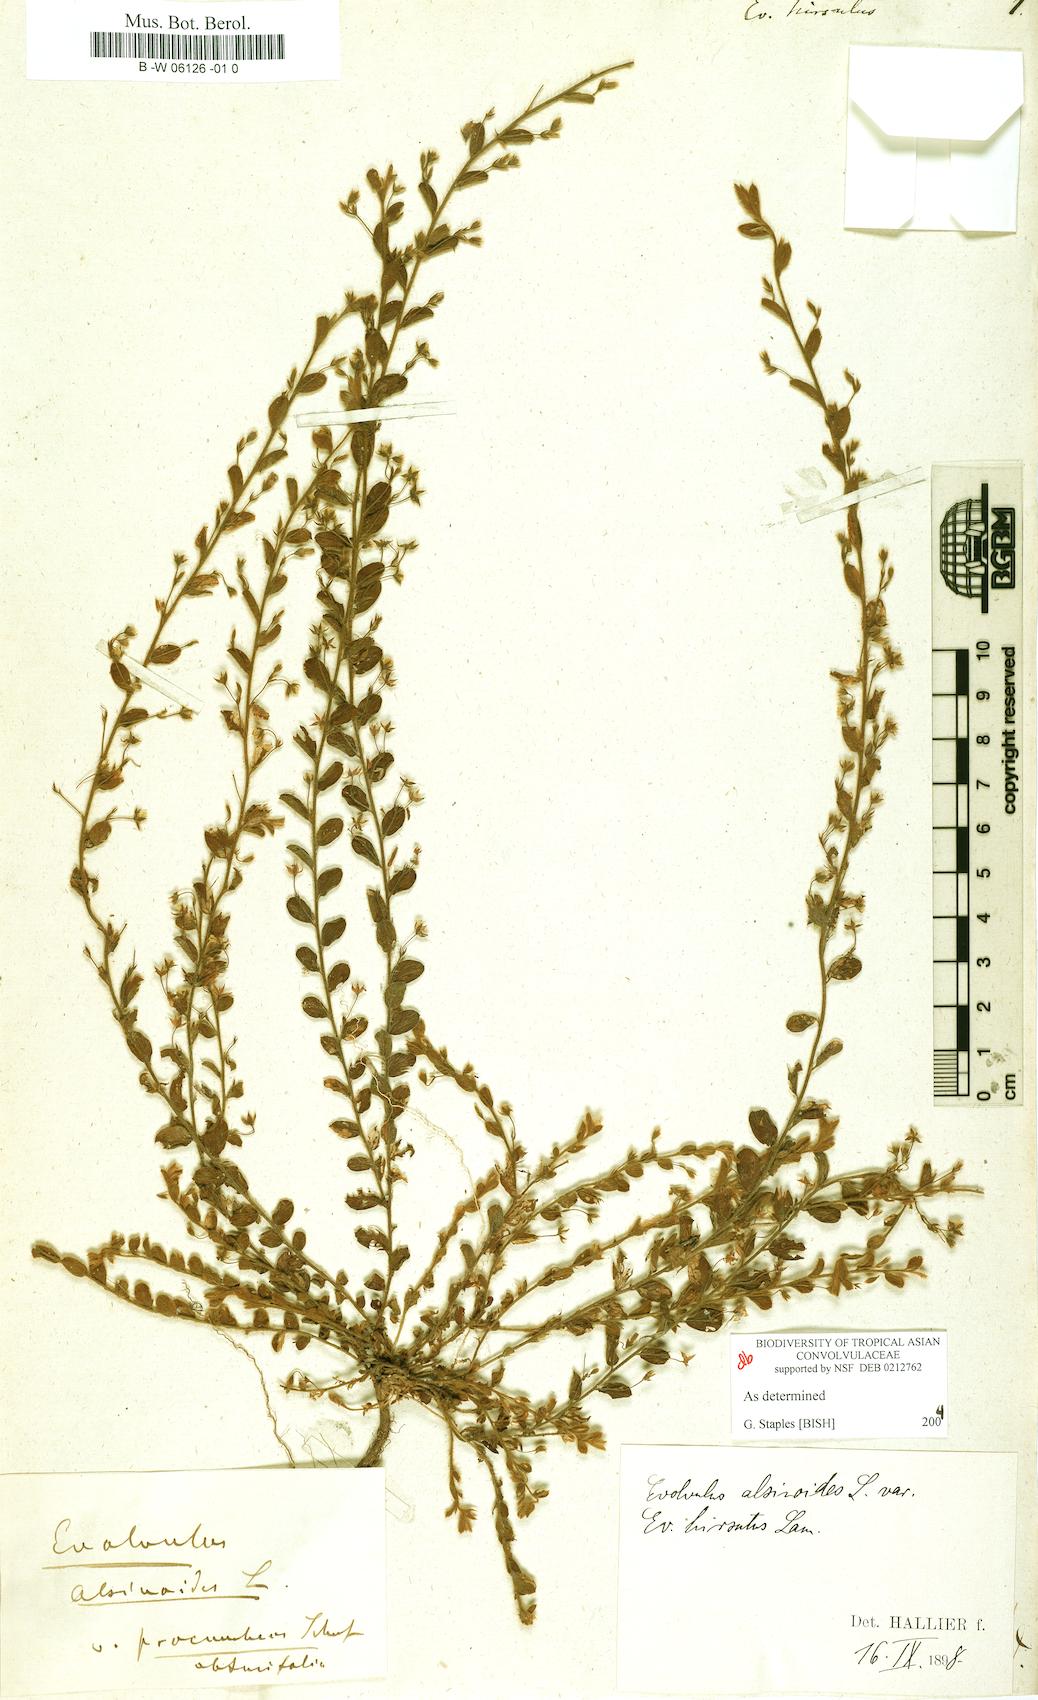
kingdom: Plantae
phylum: Tracheophyta
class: Magnoliopsida
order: Solanales
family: Convolvulaceae
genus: Evolvulus
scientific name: Evolvulus alsinoides
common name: Slender dwarf morning-glory
